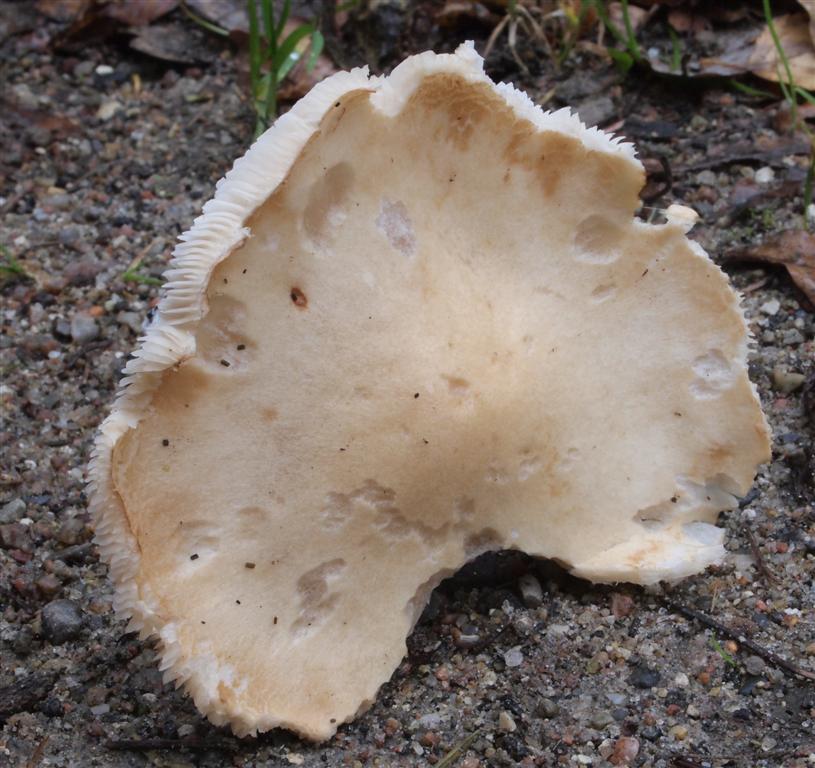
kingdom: Fungi
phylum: Basidiomycota
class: Agaricomycetes
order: Agaricales
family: Tricholomataceae
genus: Tricholoma
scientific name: Tricholoma album
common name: honning-ridderhat
